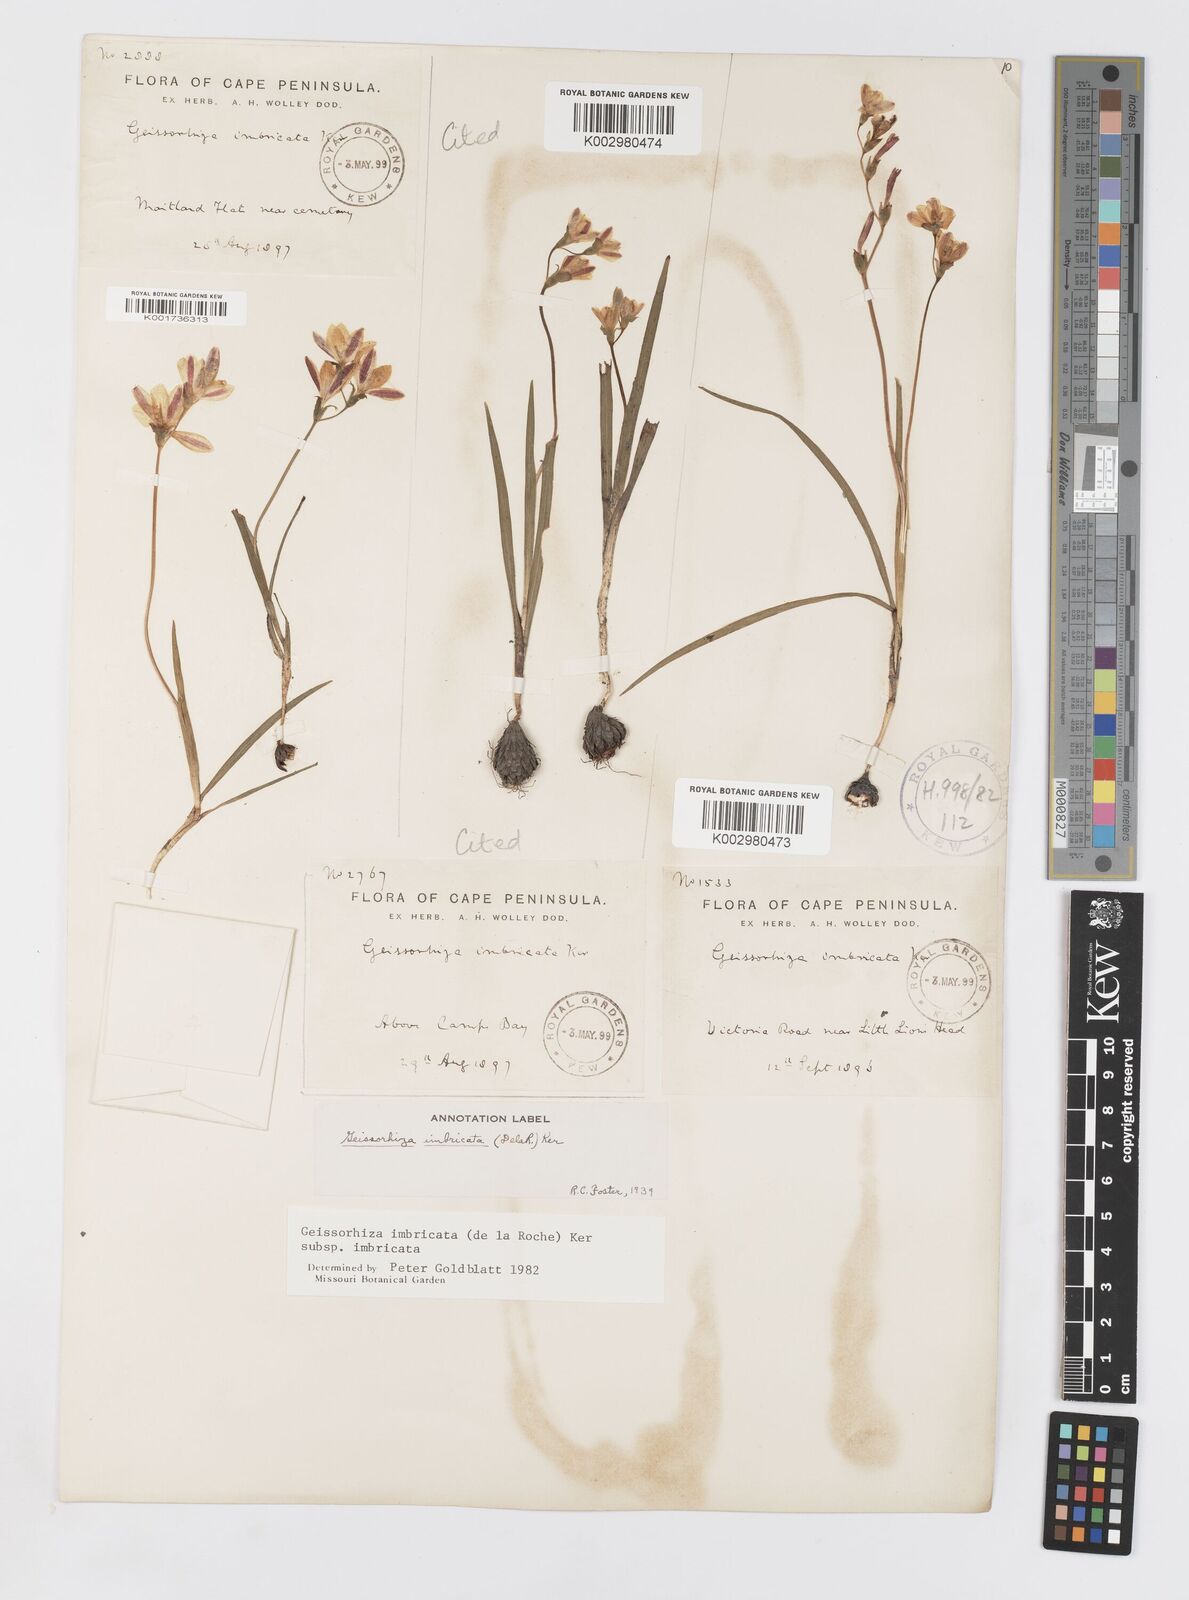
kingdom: Plantae
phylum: Tracheophyta
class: Liliopsida
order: Asparagales
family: Iridaceae
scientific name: Iridaceae
